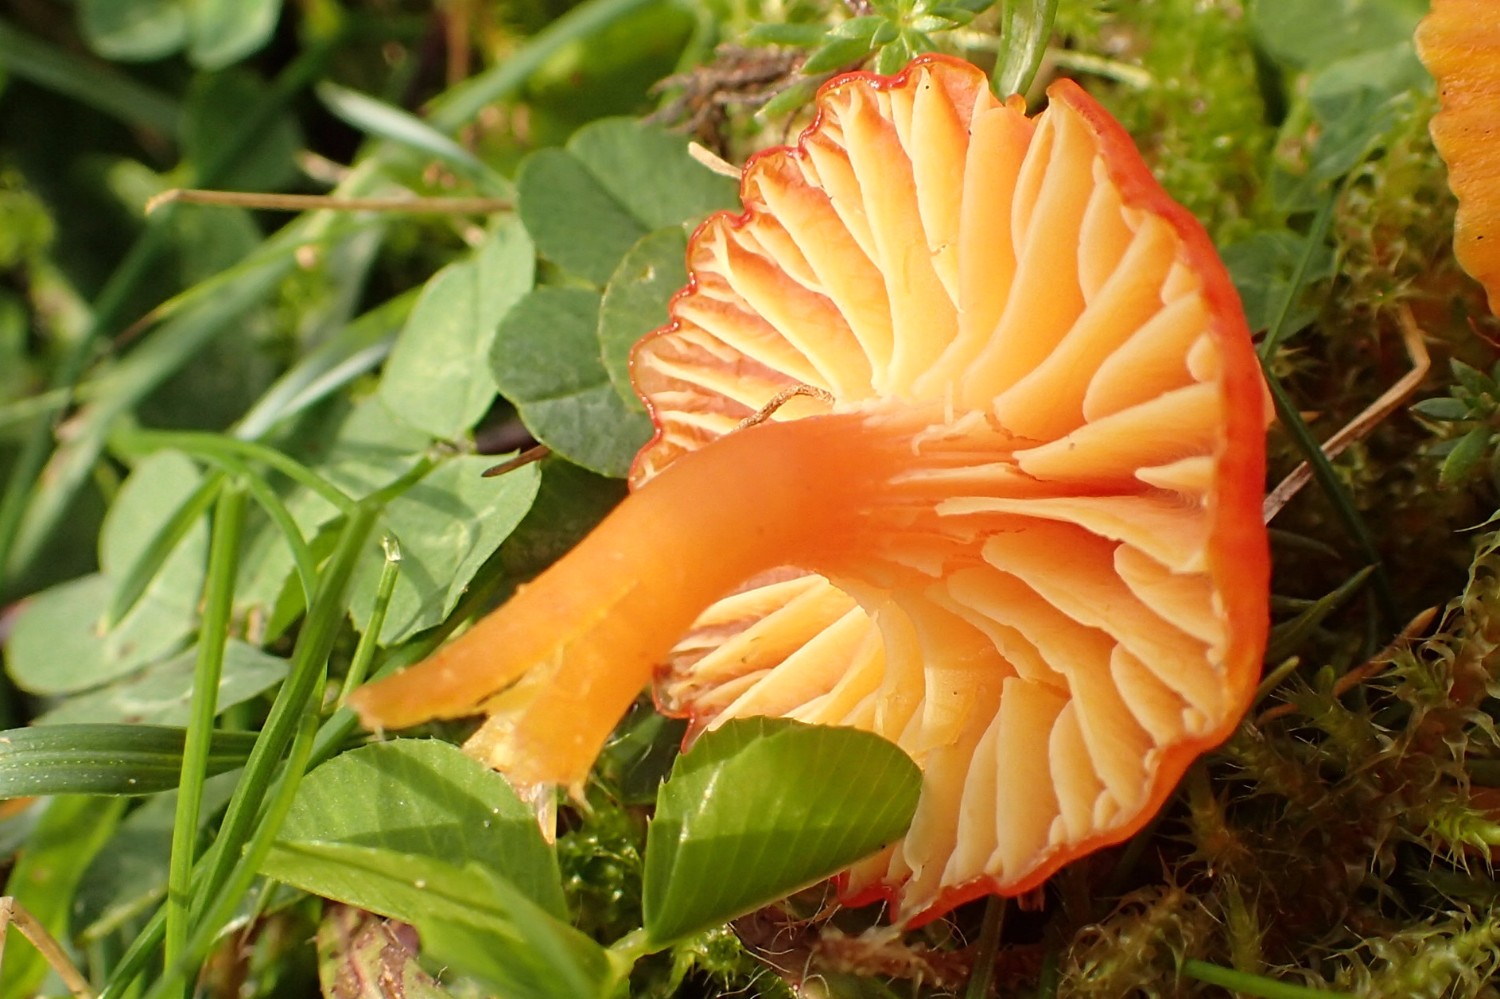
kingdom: Fungi
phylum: Basidiomycota
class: Agaricomycetes
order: Agaricales
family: Hygrophoraceae
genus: Hygrocybe
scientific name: Hygrocybe insipida
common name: liden vokshat
